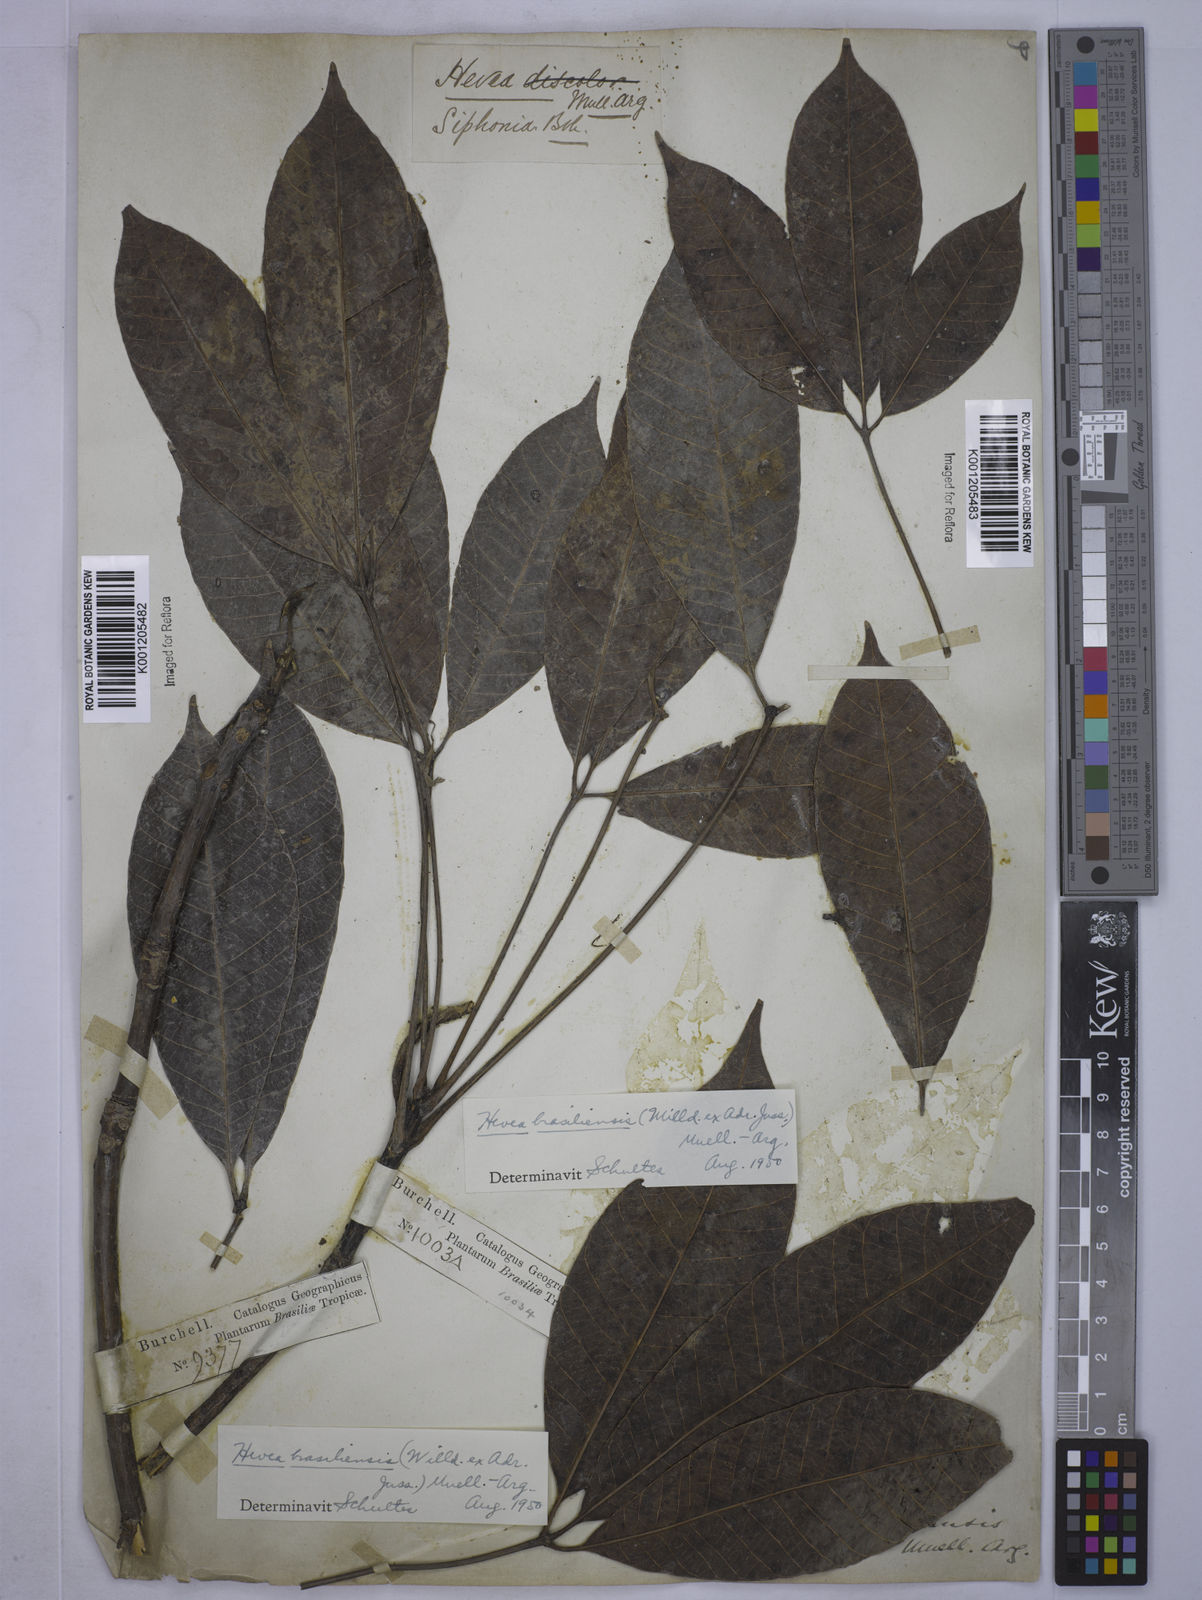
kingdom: Plantae
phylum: Tracheophyta
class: Magnoliopsida
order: Malpighiales
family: Euphorbiaceae
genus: Hevea
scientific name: Hevea
